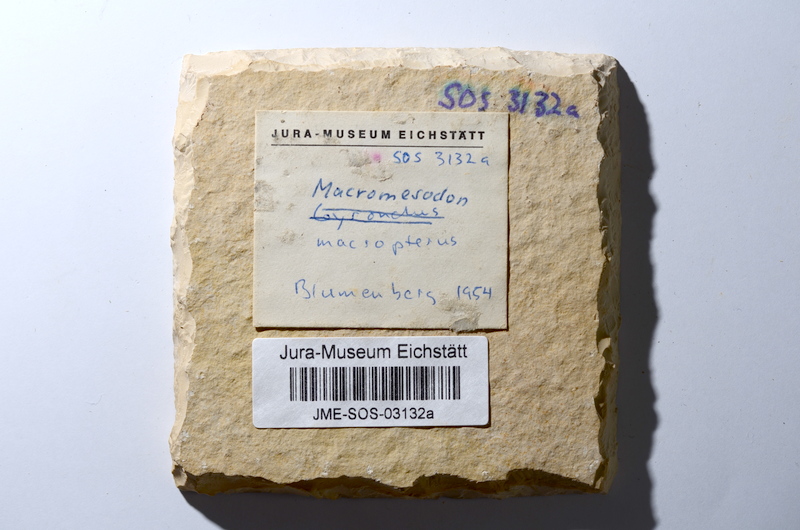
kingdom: Animalia
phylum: Chordata
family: Pycnodontidae
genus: Turbomesodon
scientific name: Turbomesodon relegans
